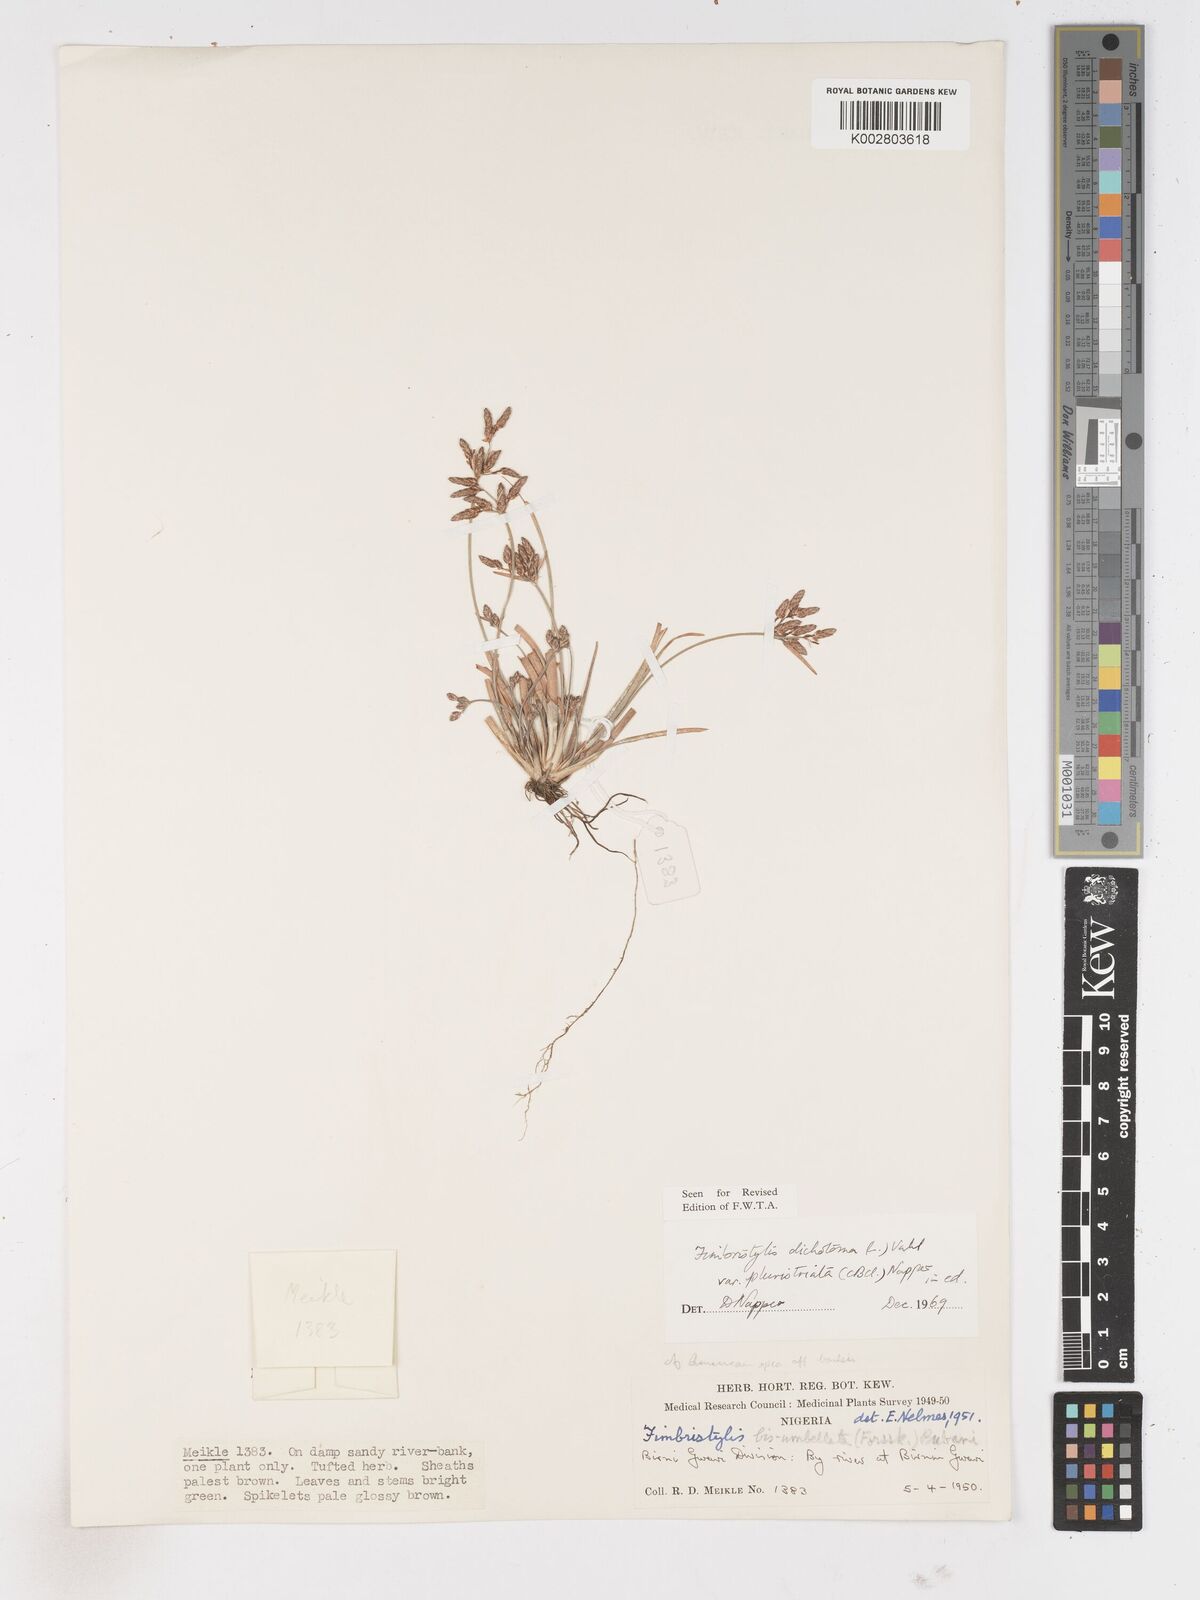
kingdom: Plantae
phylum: Tracheophyta
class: Liliopsida
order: Poales
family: Cyperaceae
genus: Fimbristylis
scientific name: Fimbristylis dichotoma
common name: Forked fimbry
